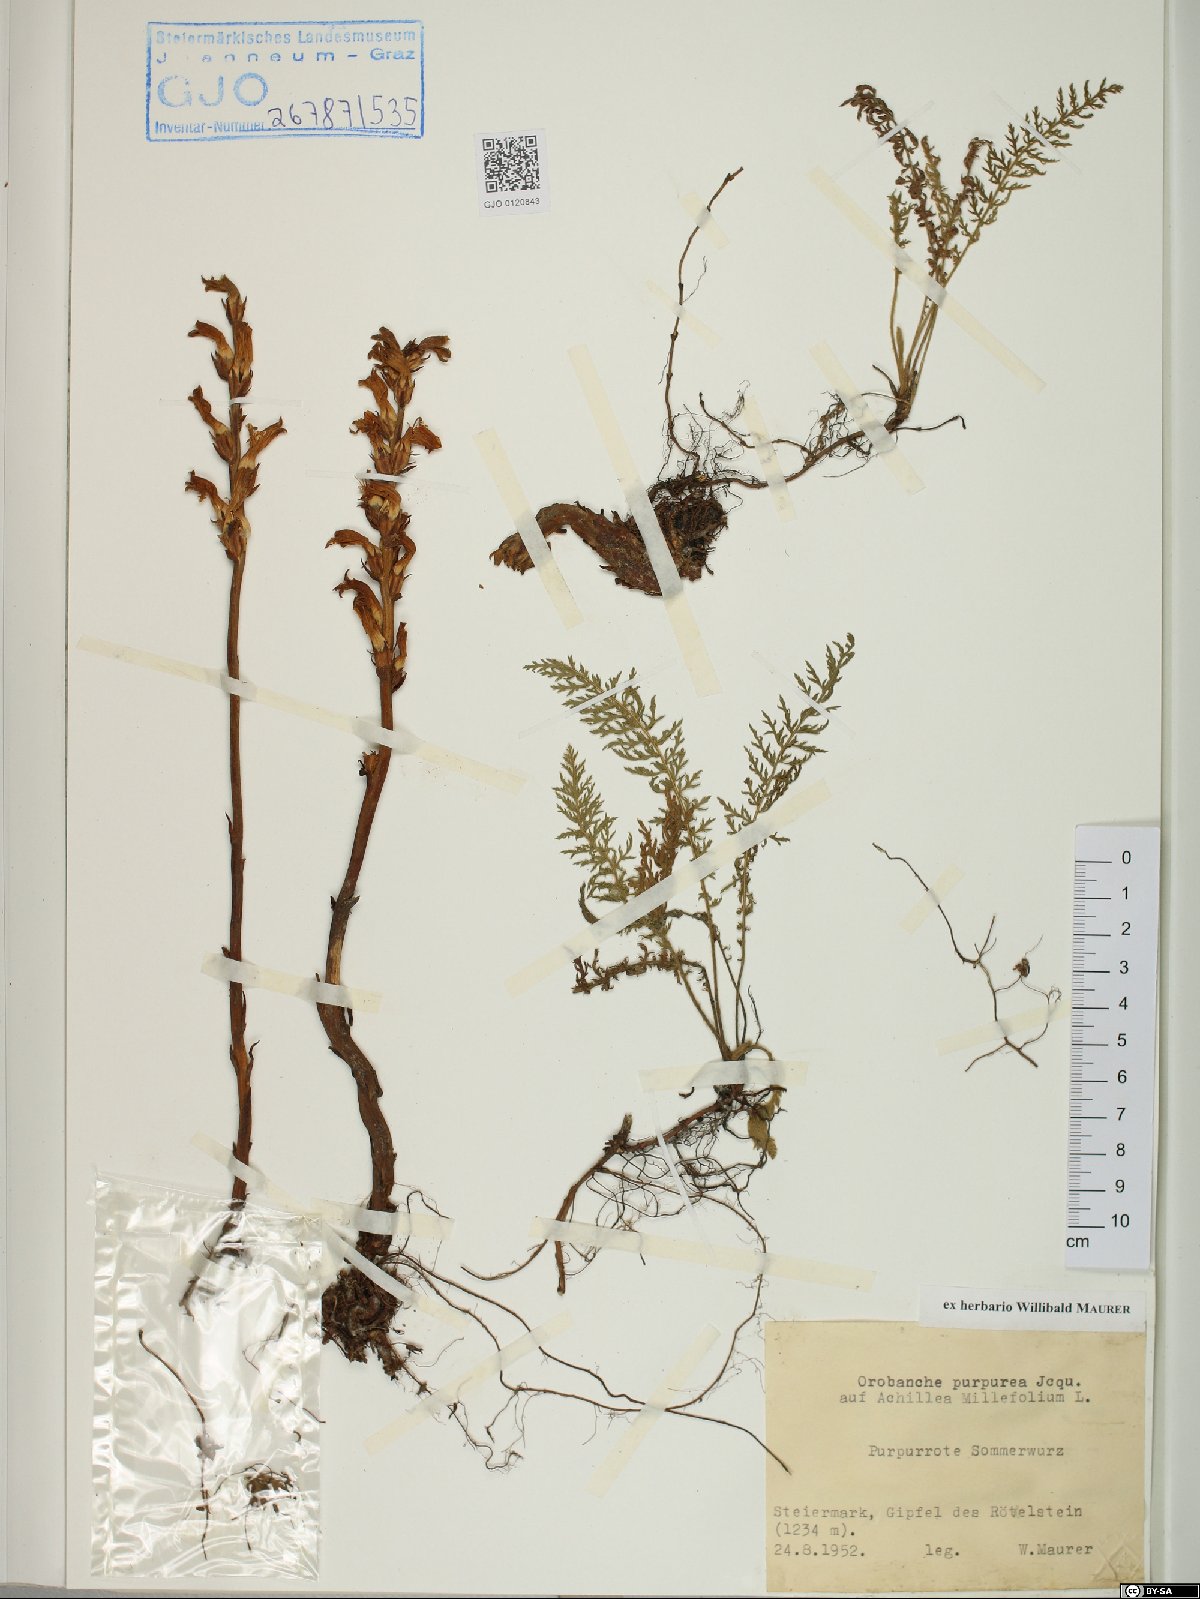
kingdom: Plantae
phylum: Tracheophyta
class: Magnoliopsida
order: Lamiales
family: Orobanchaceae
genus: Phelipanche
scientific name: Phelipanche purpurea
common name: Purple broomrape
